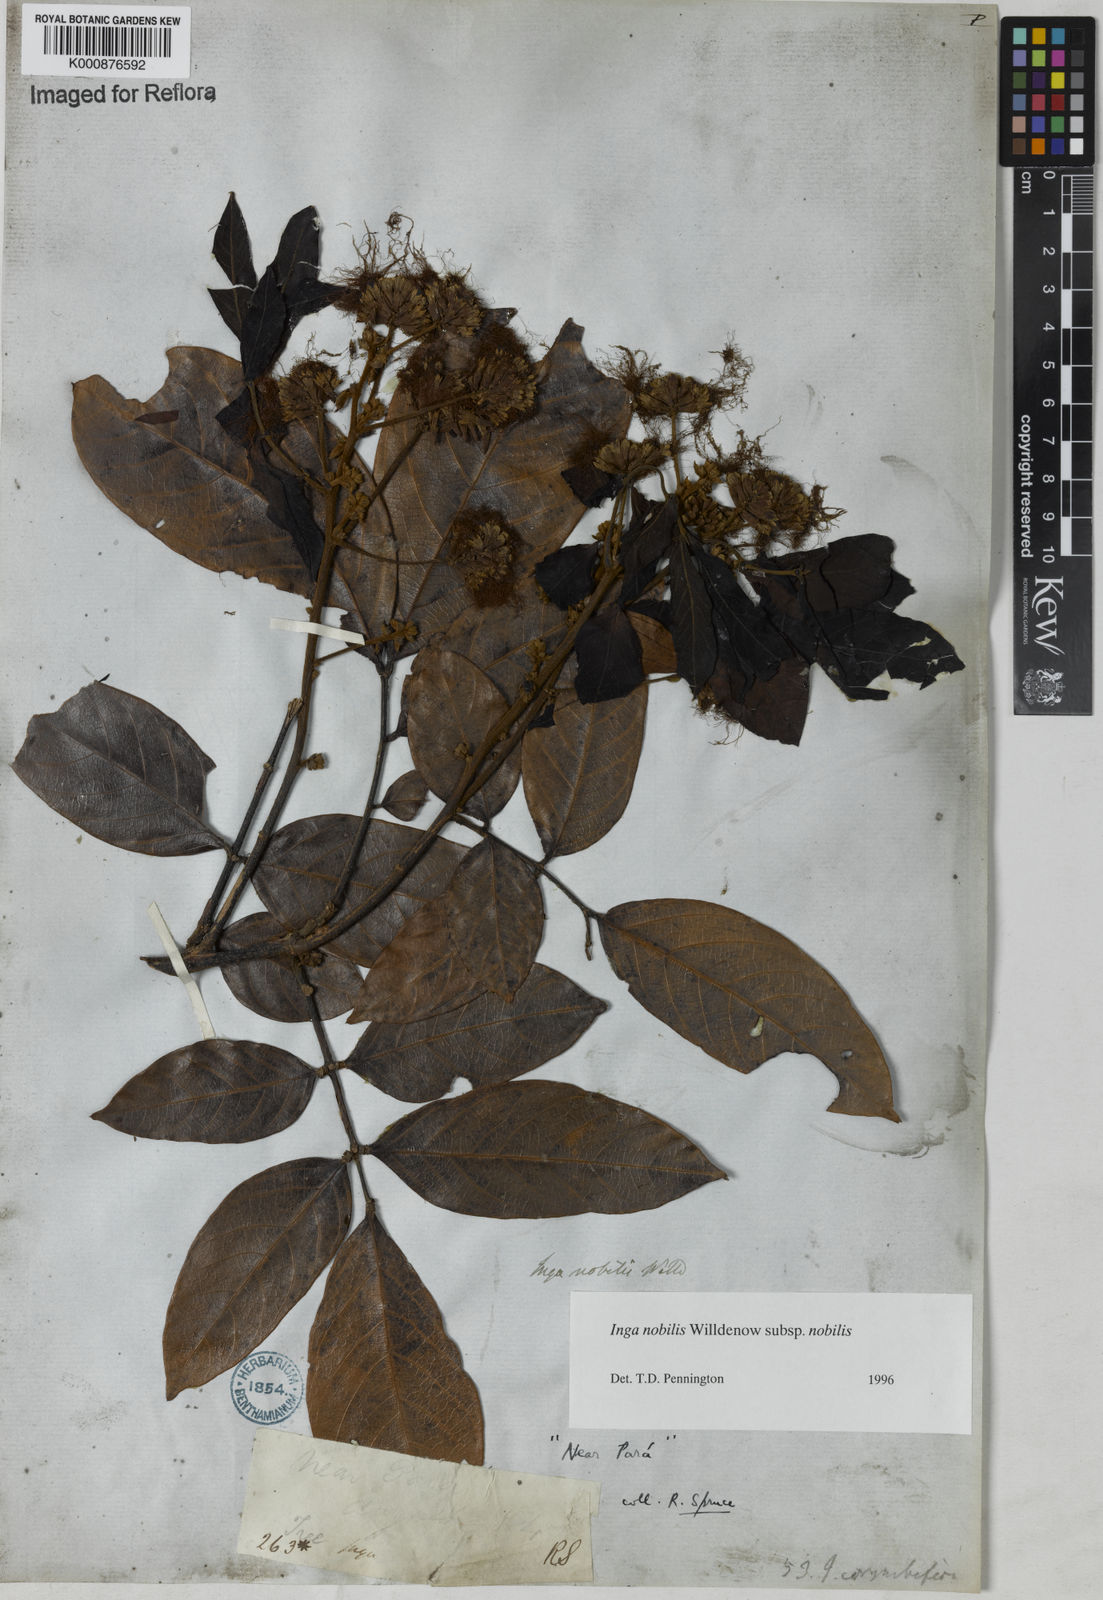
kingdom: Plantae
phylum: Tracheophyta
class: Magnoliopsida
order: Fabales
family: Fabaceae
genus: Inga
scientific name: Inga nobilis
